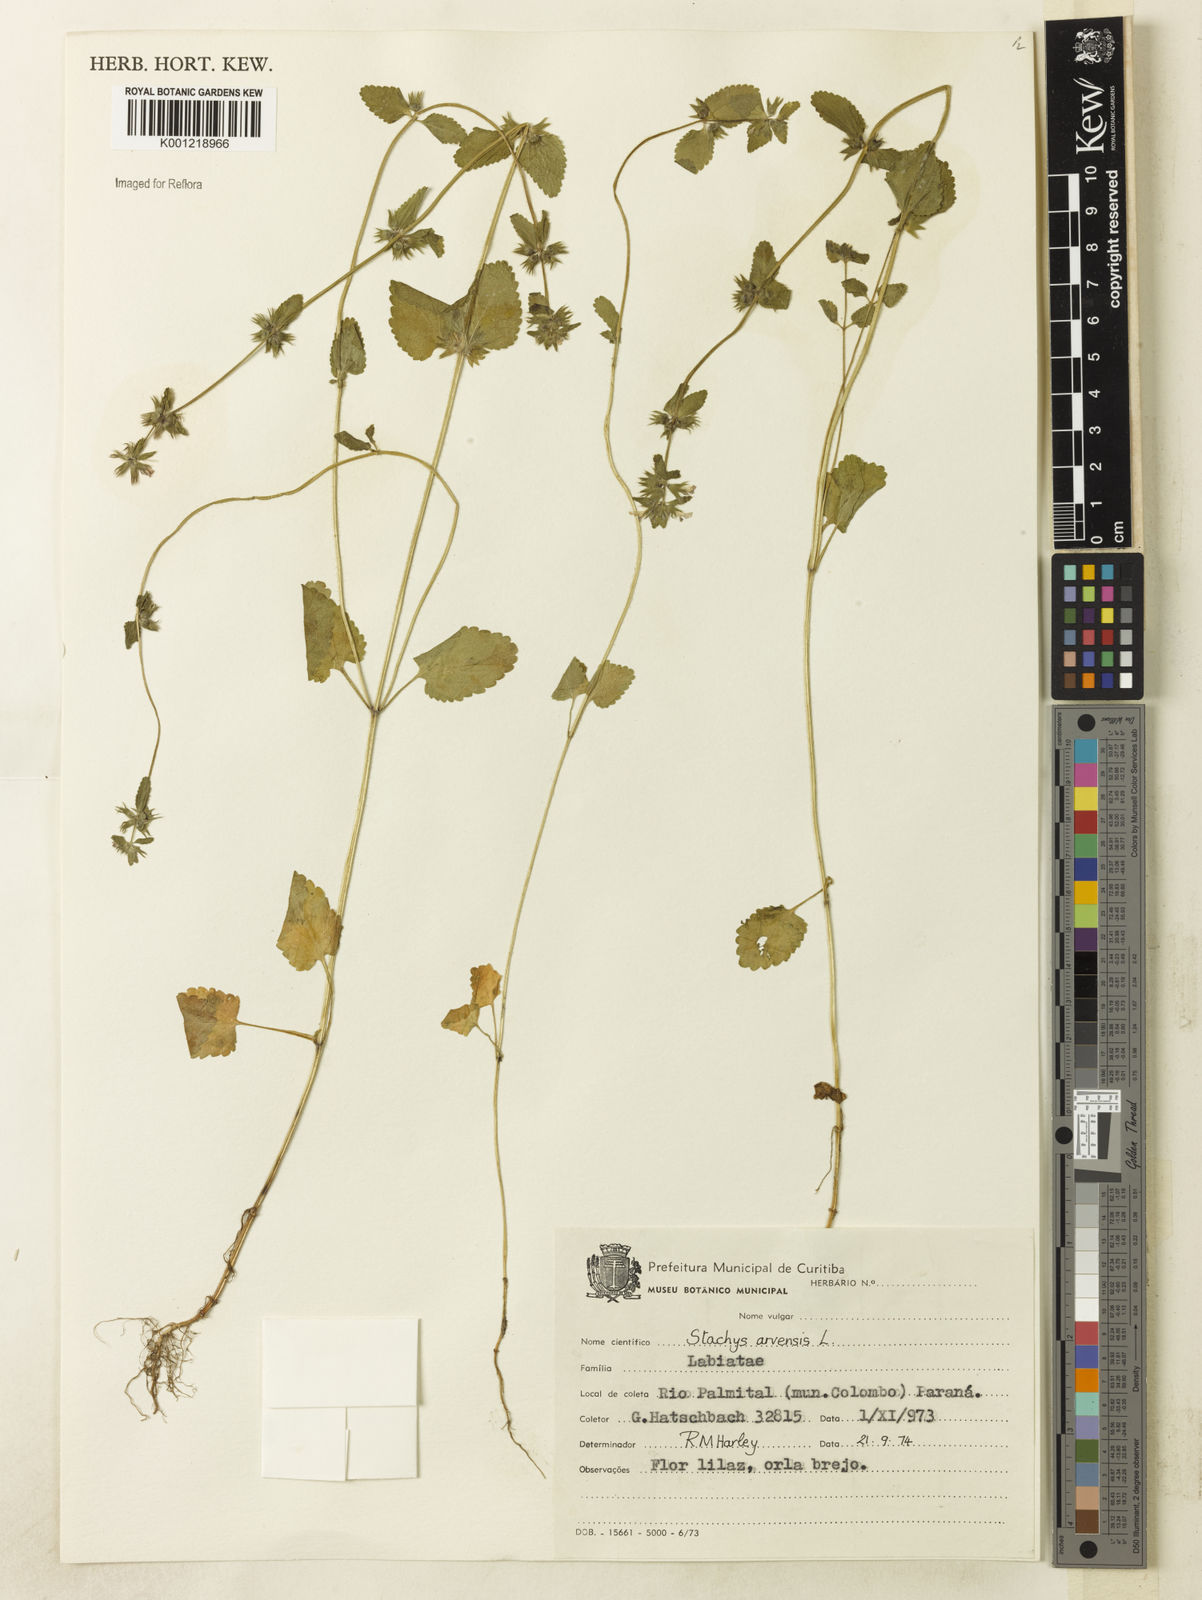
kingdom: Plantae
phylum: Tracheophyta
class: Magnoliopsida
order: Lamiales
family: Lamiaceae
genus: Stachys
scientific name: Stachys arvensis
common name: Field woundwort
